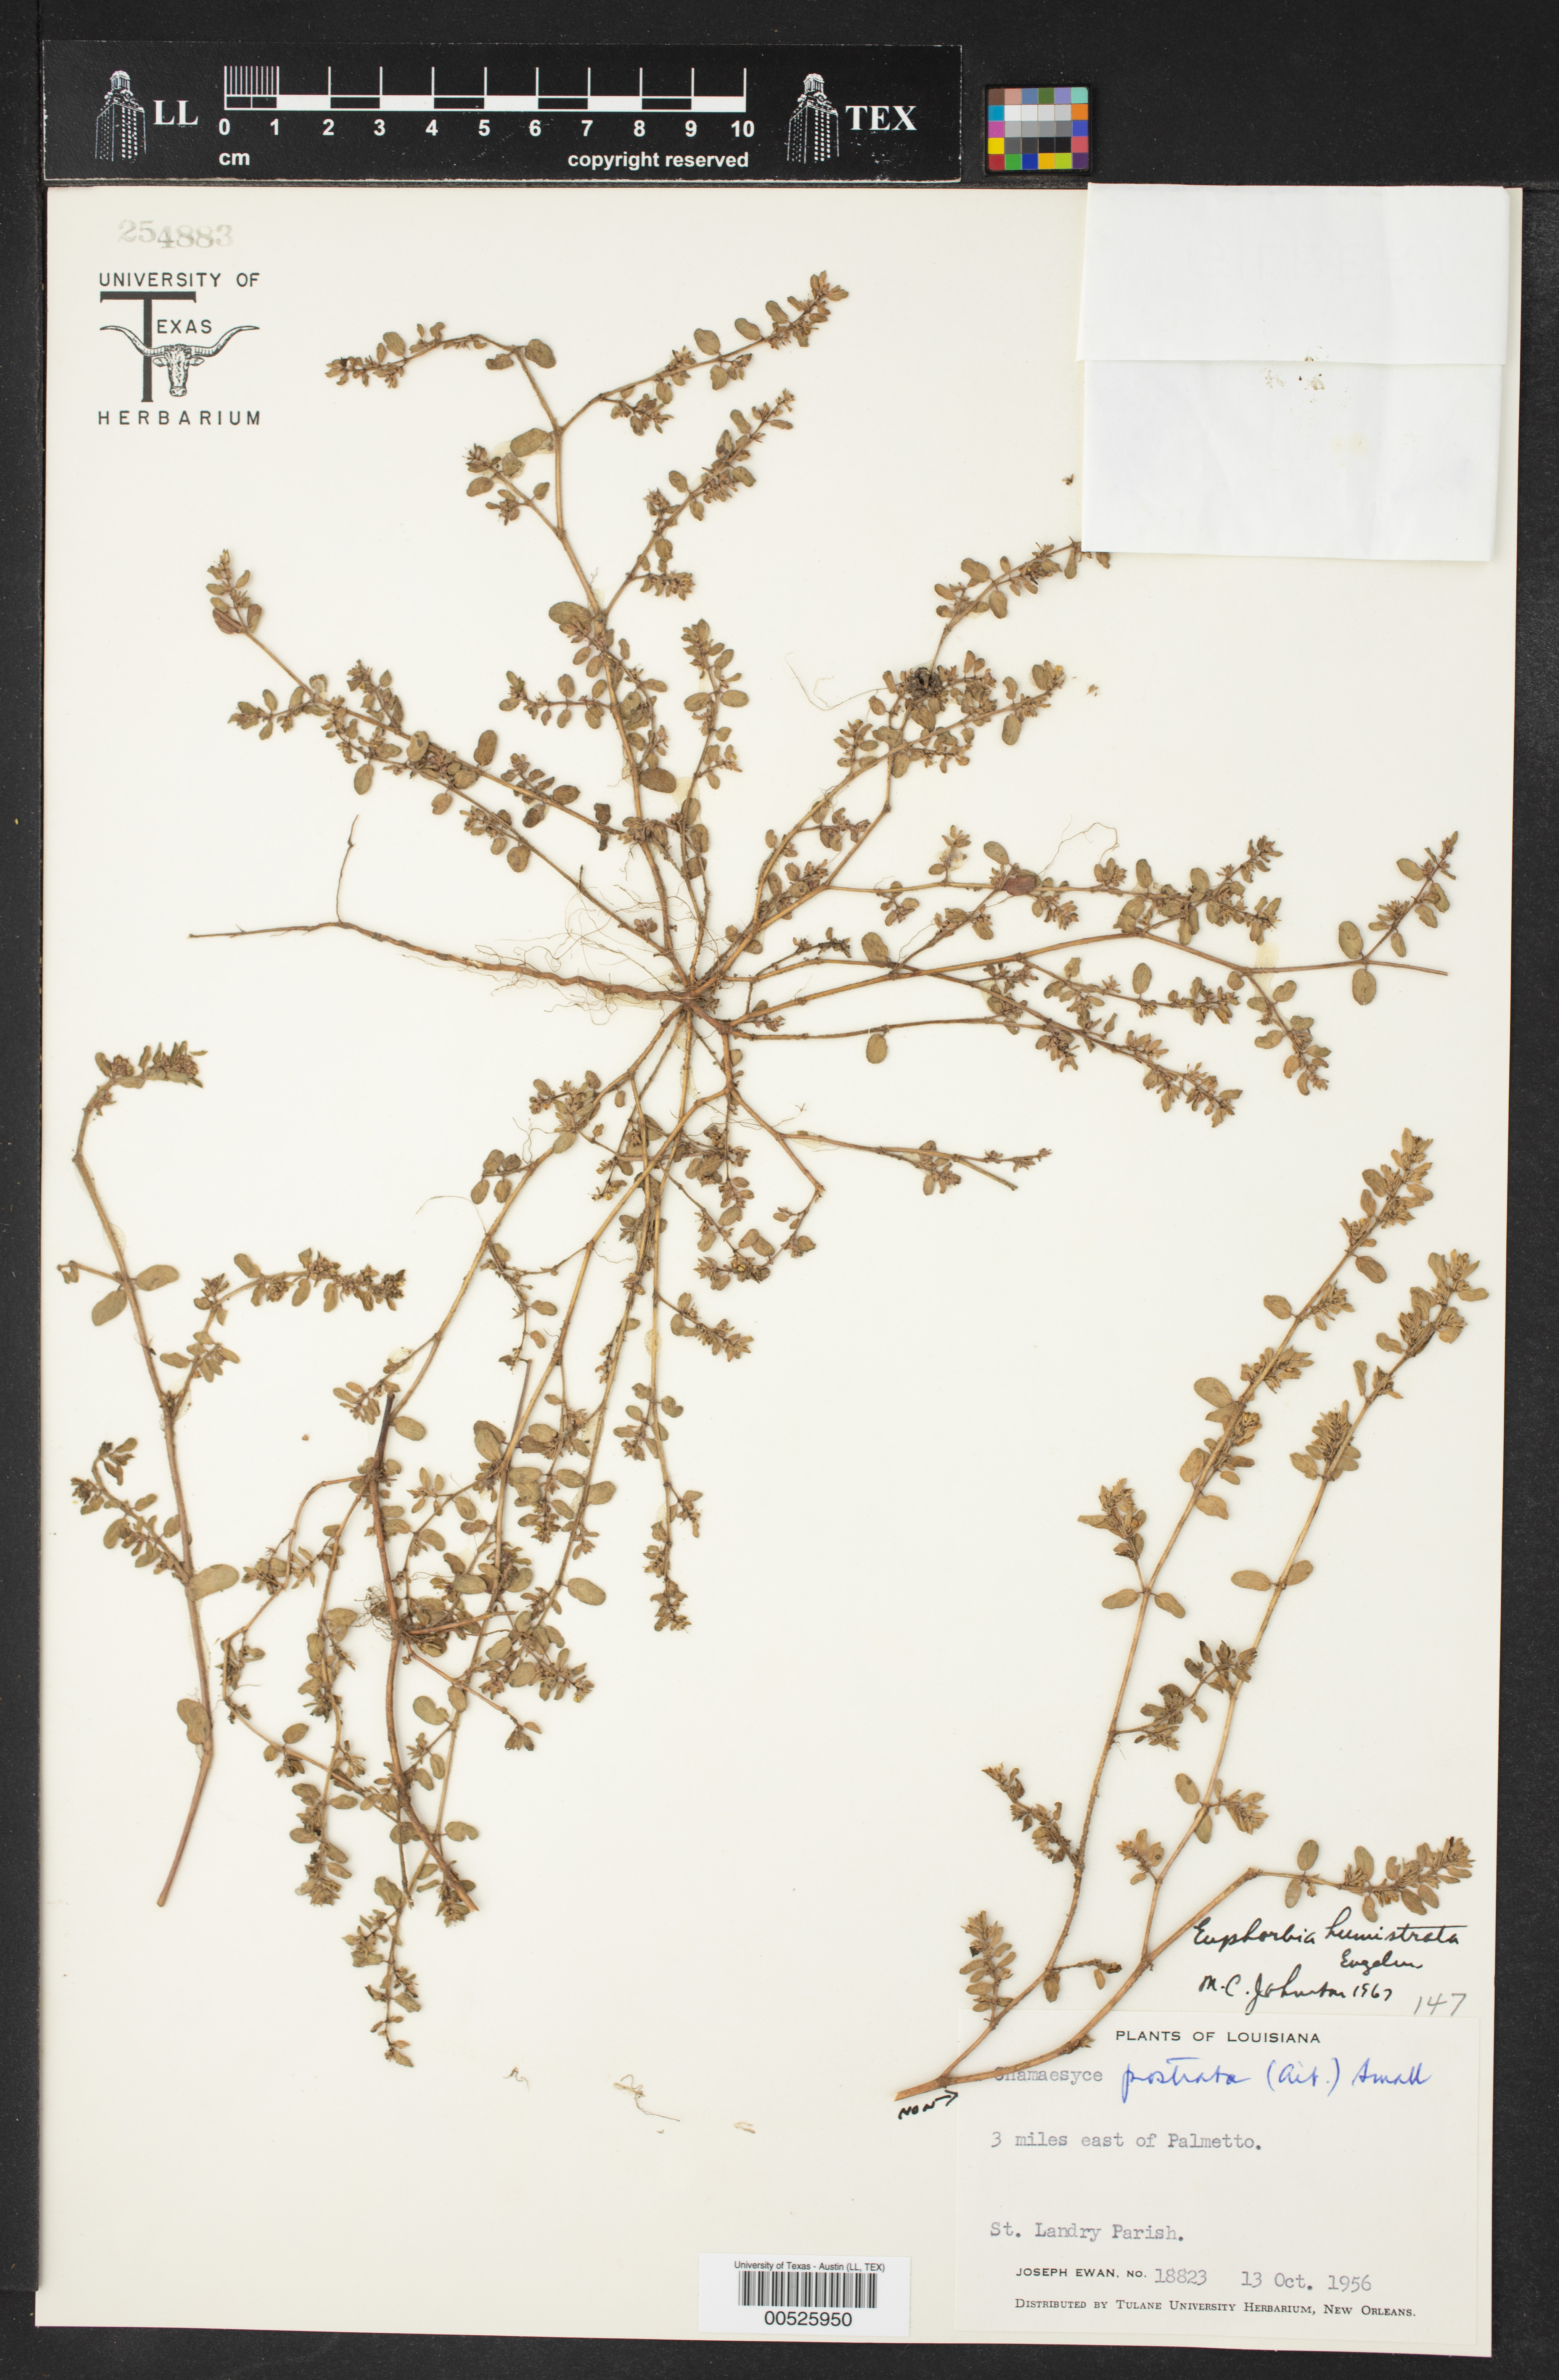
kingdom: Plantae
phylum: Tracheophyta
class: Magnoliopsida
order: Malpighiales
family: Euphorbiaceae
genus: Euphorbia
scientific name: Euphorbia humistrata
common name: Hairy spreading spurge
